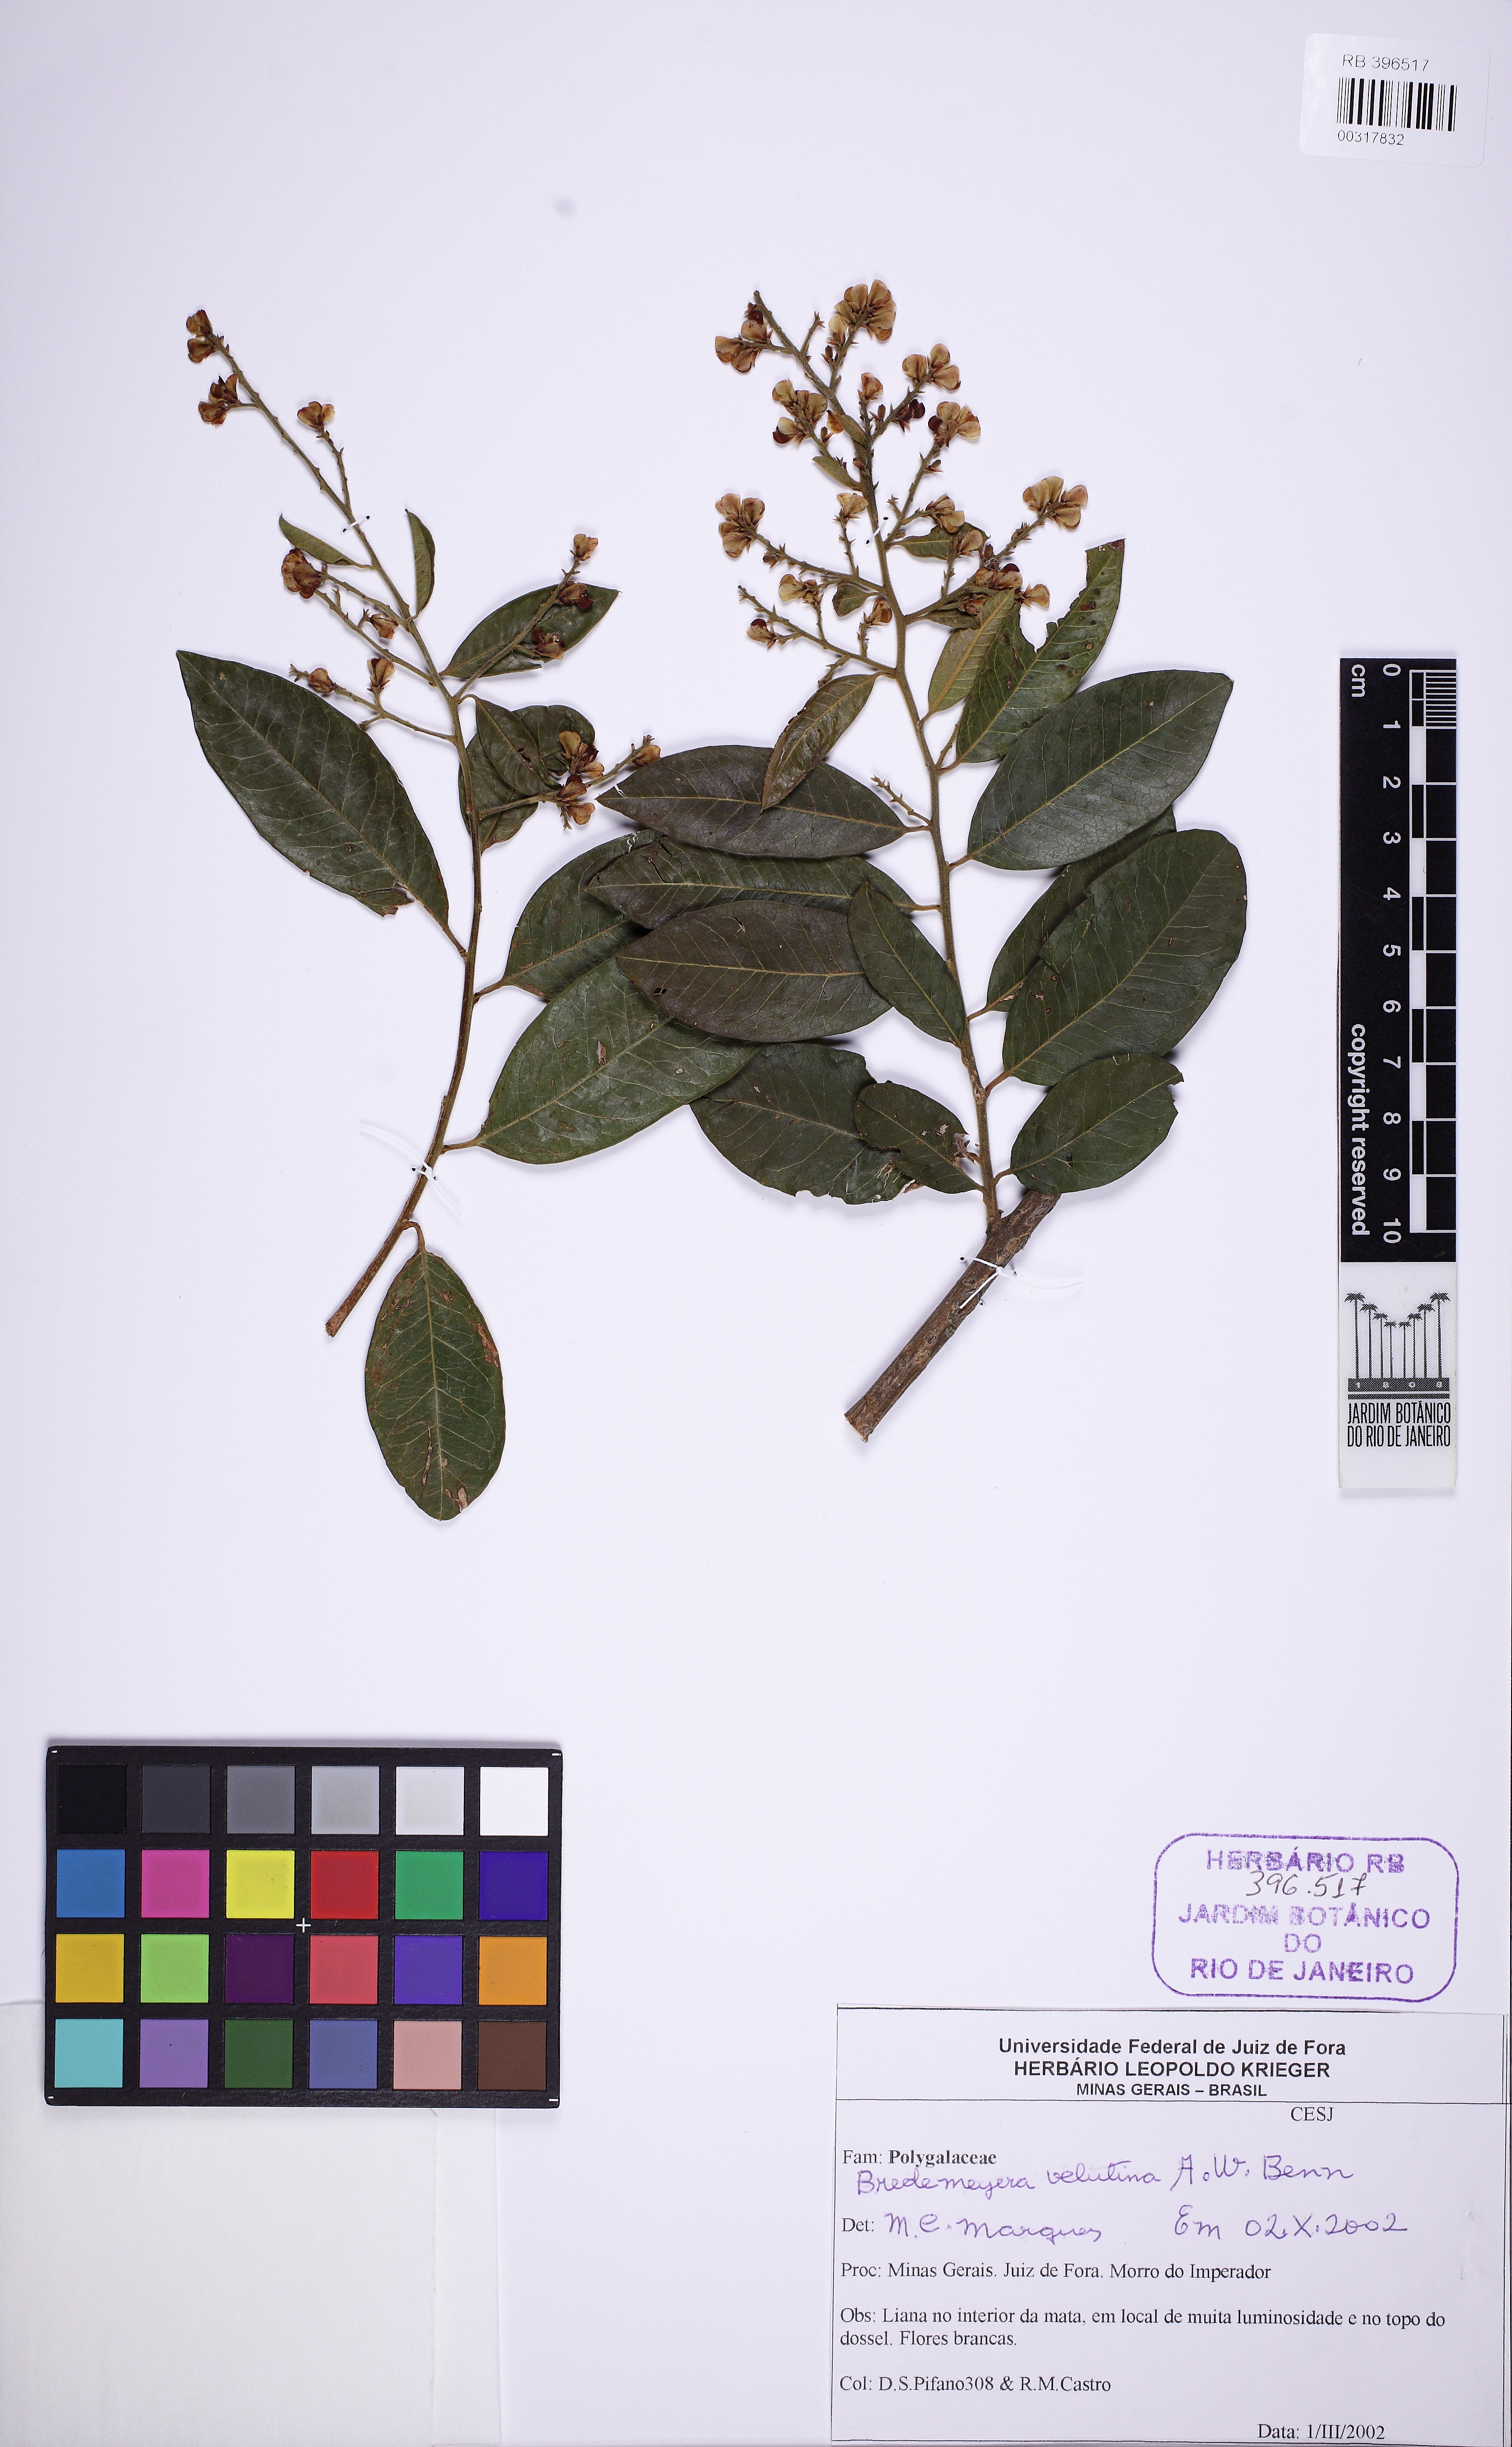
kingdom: Plantae
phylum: Tracheophyta
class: Magnoliopsida
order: Fabales
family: Polygalaceae
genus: Bredemeyera
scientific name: Bredemeyera laurifolia
